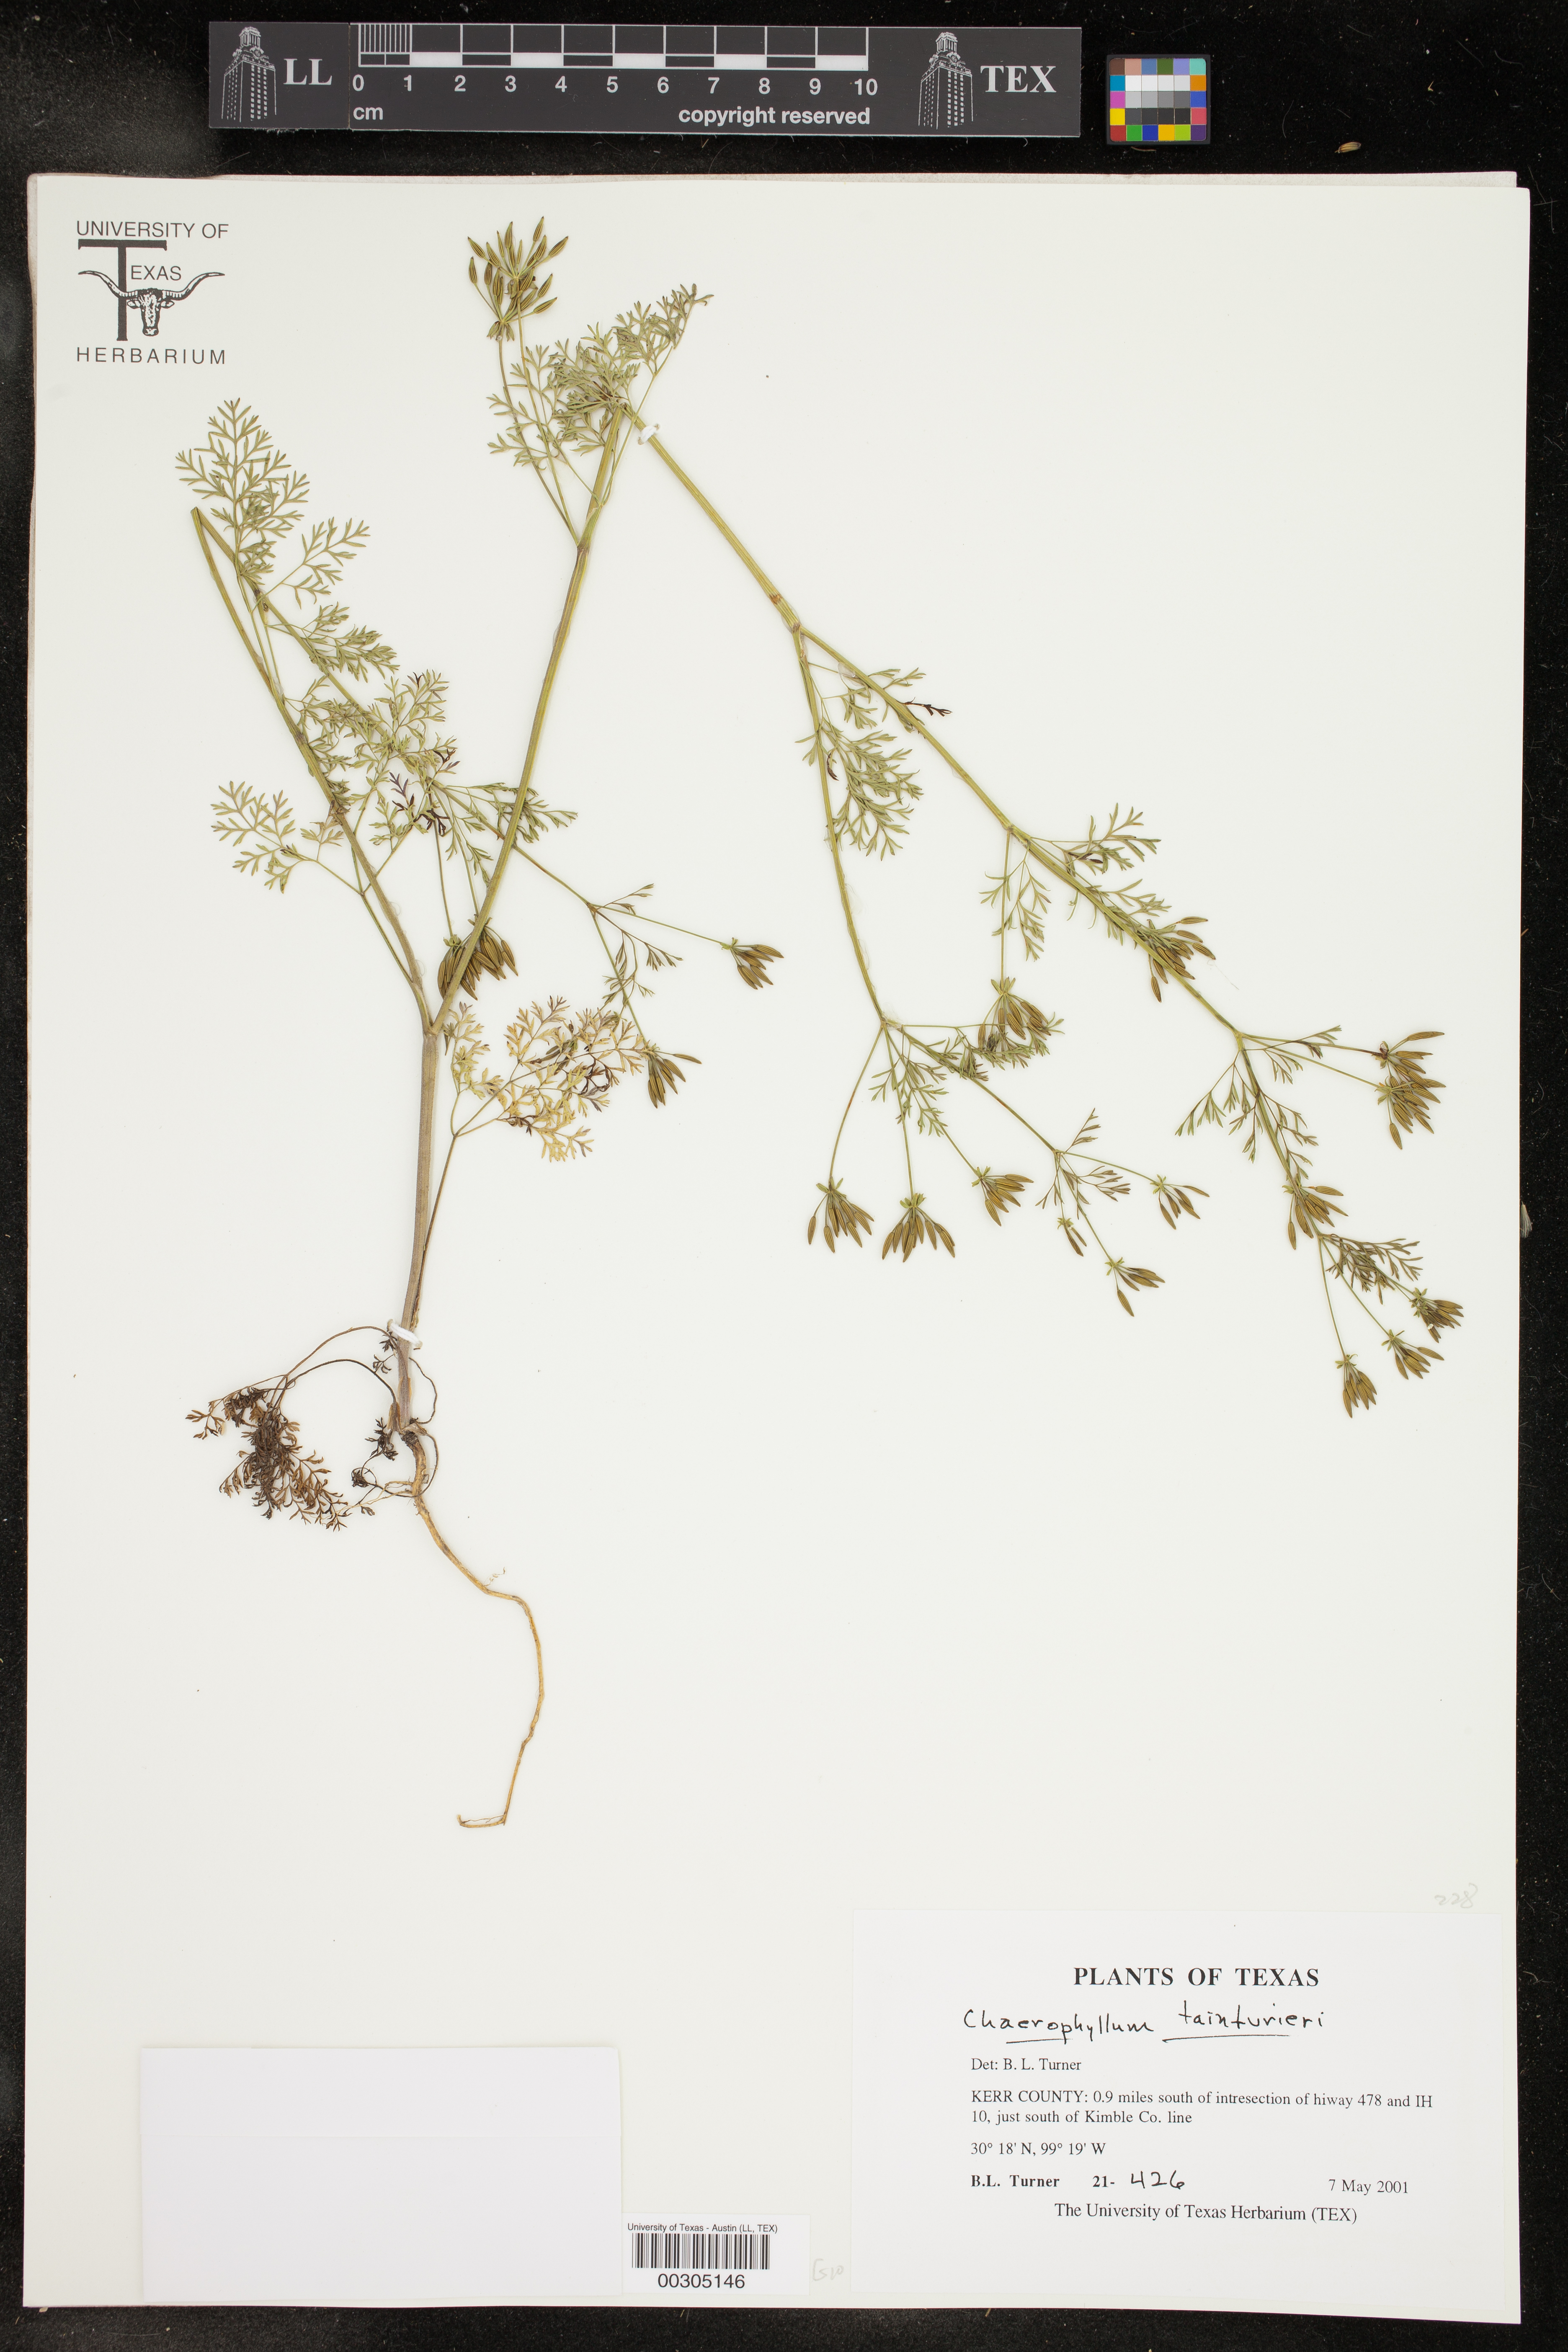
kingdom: Plantae
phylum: Tracheophyta
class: Magnoliopsida
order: Apiales
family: Apiaceae
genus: Chaerophyllum
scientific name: Chaerophyllum tainturieri
